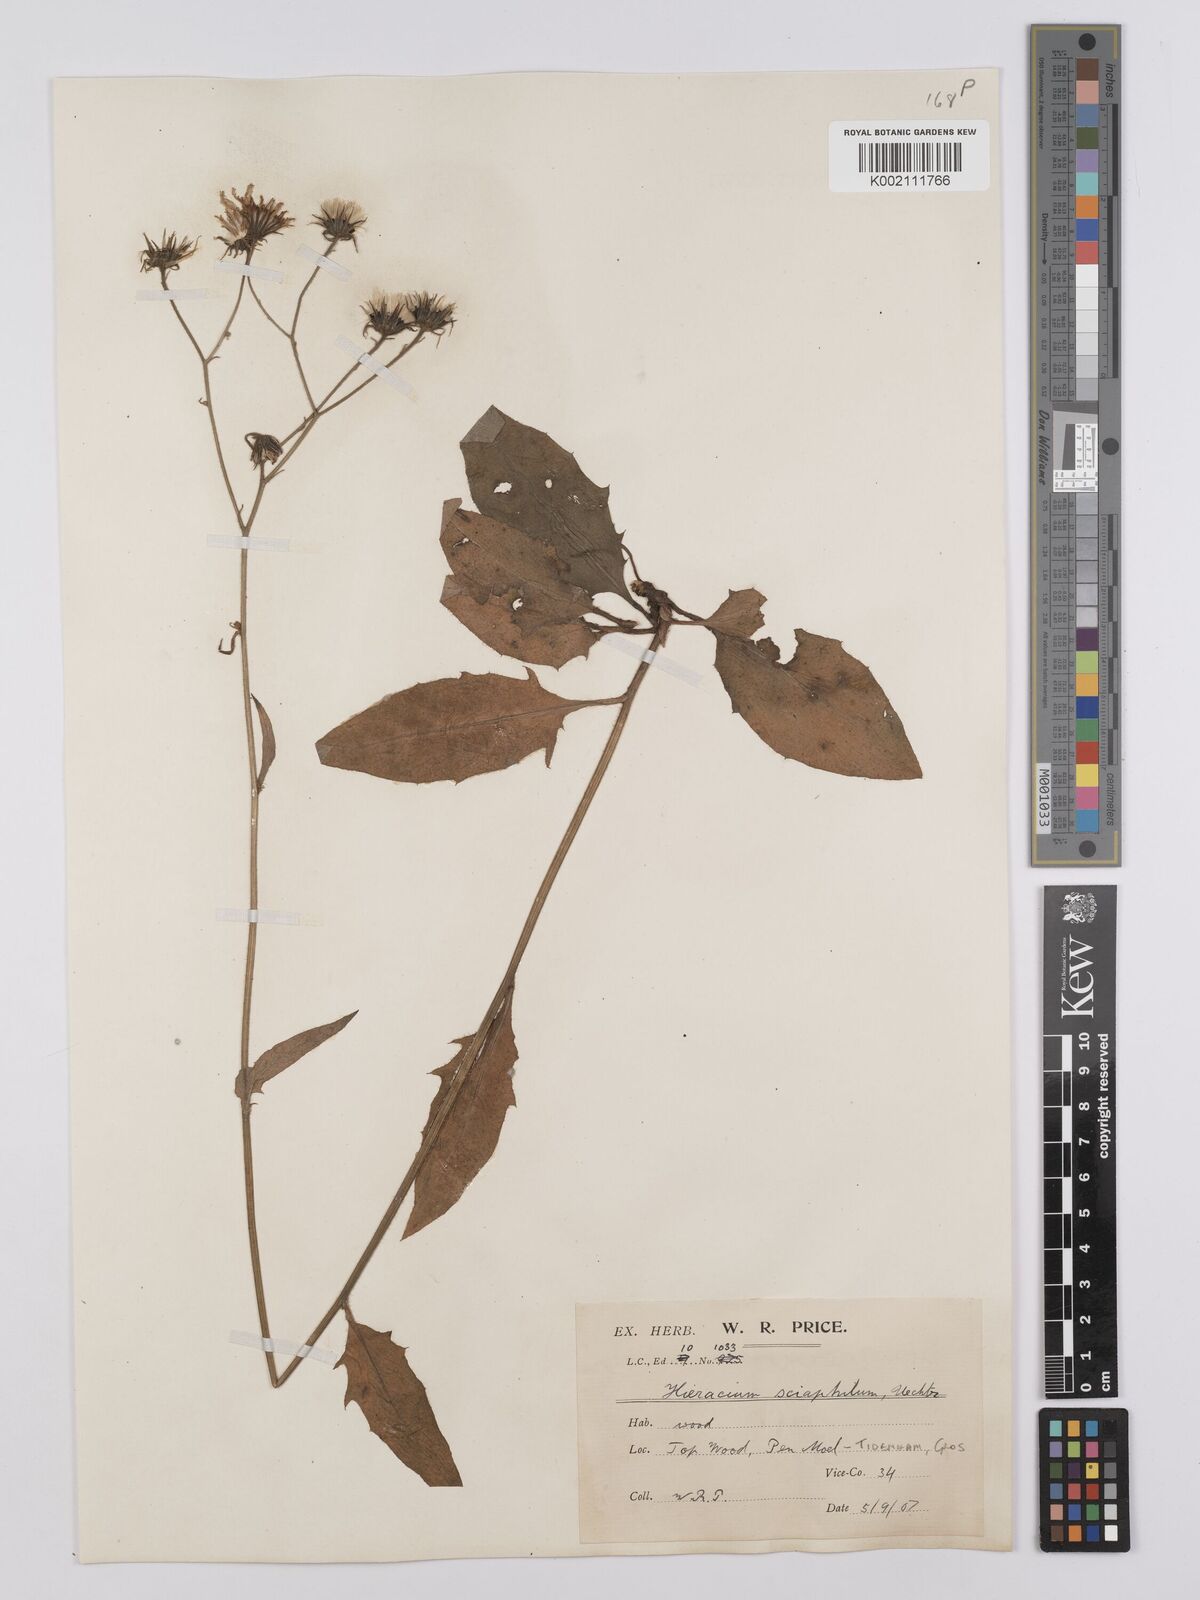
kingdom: Plantae
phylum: Tracheophyta
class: Magnoliopsida
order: Asterales
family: Asteraceae
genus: Hieracium
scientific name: Hieracium lachenalii
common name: Common hawkweed
